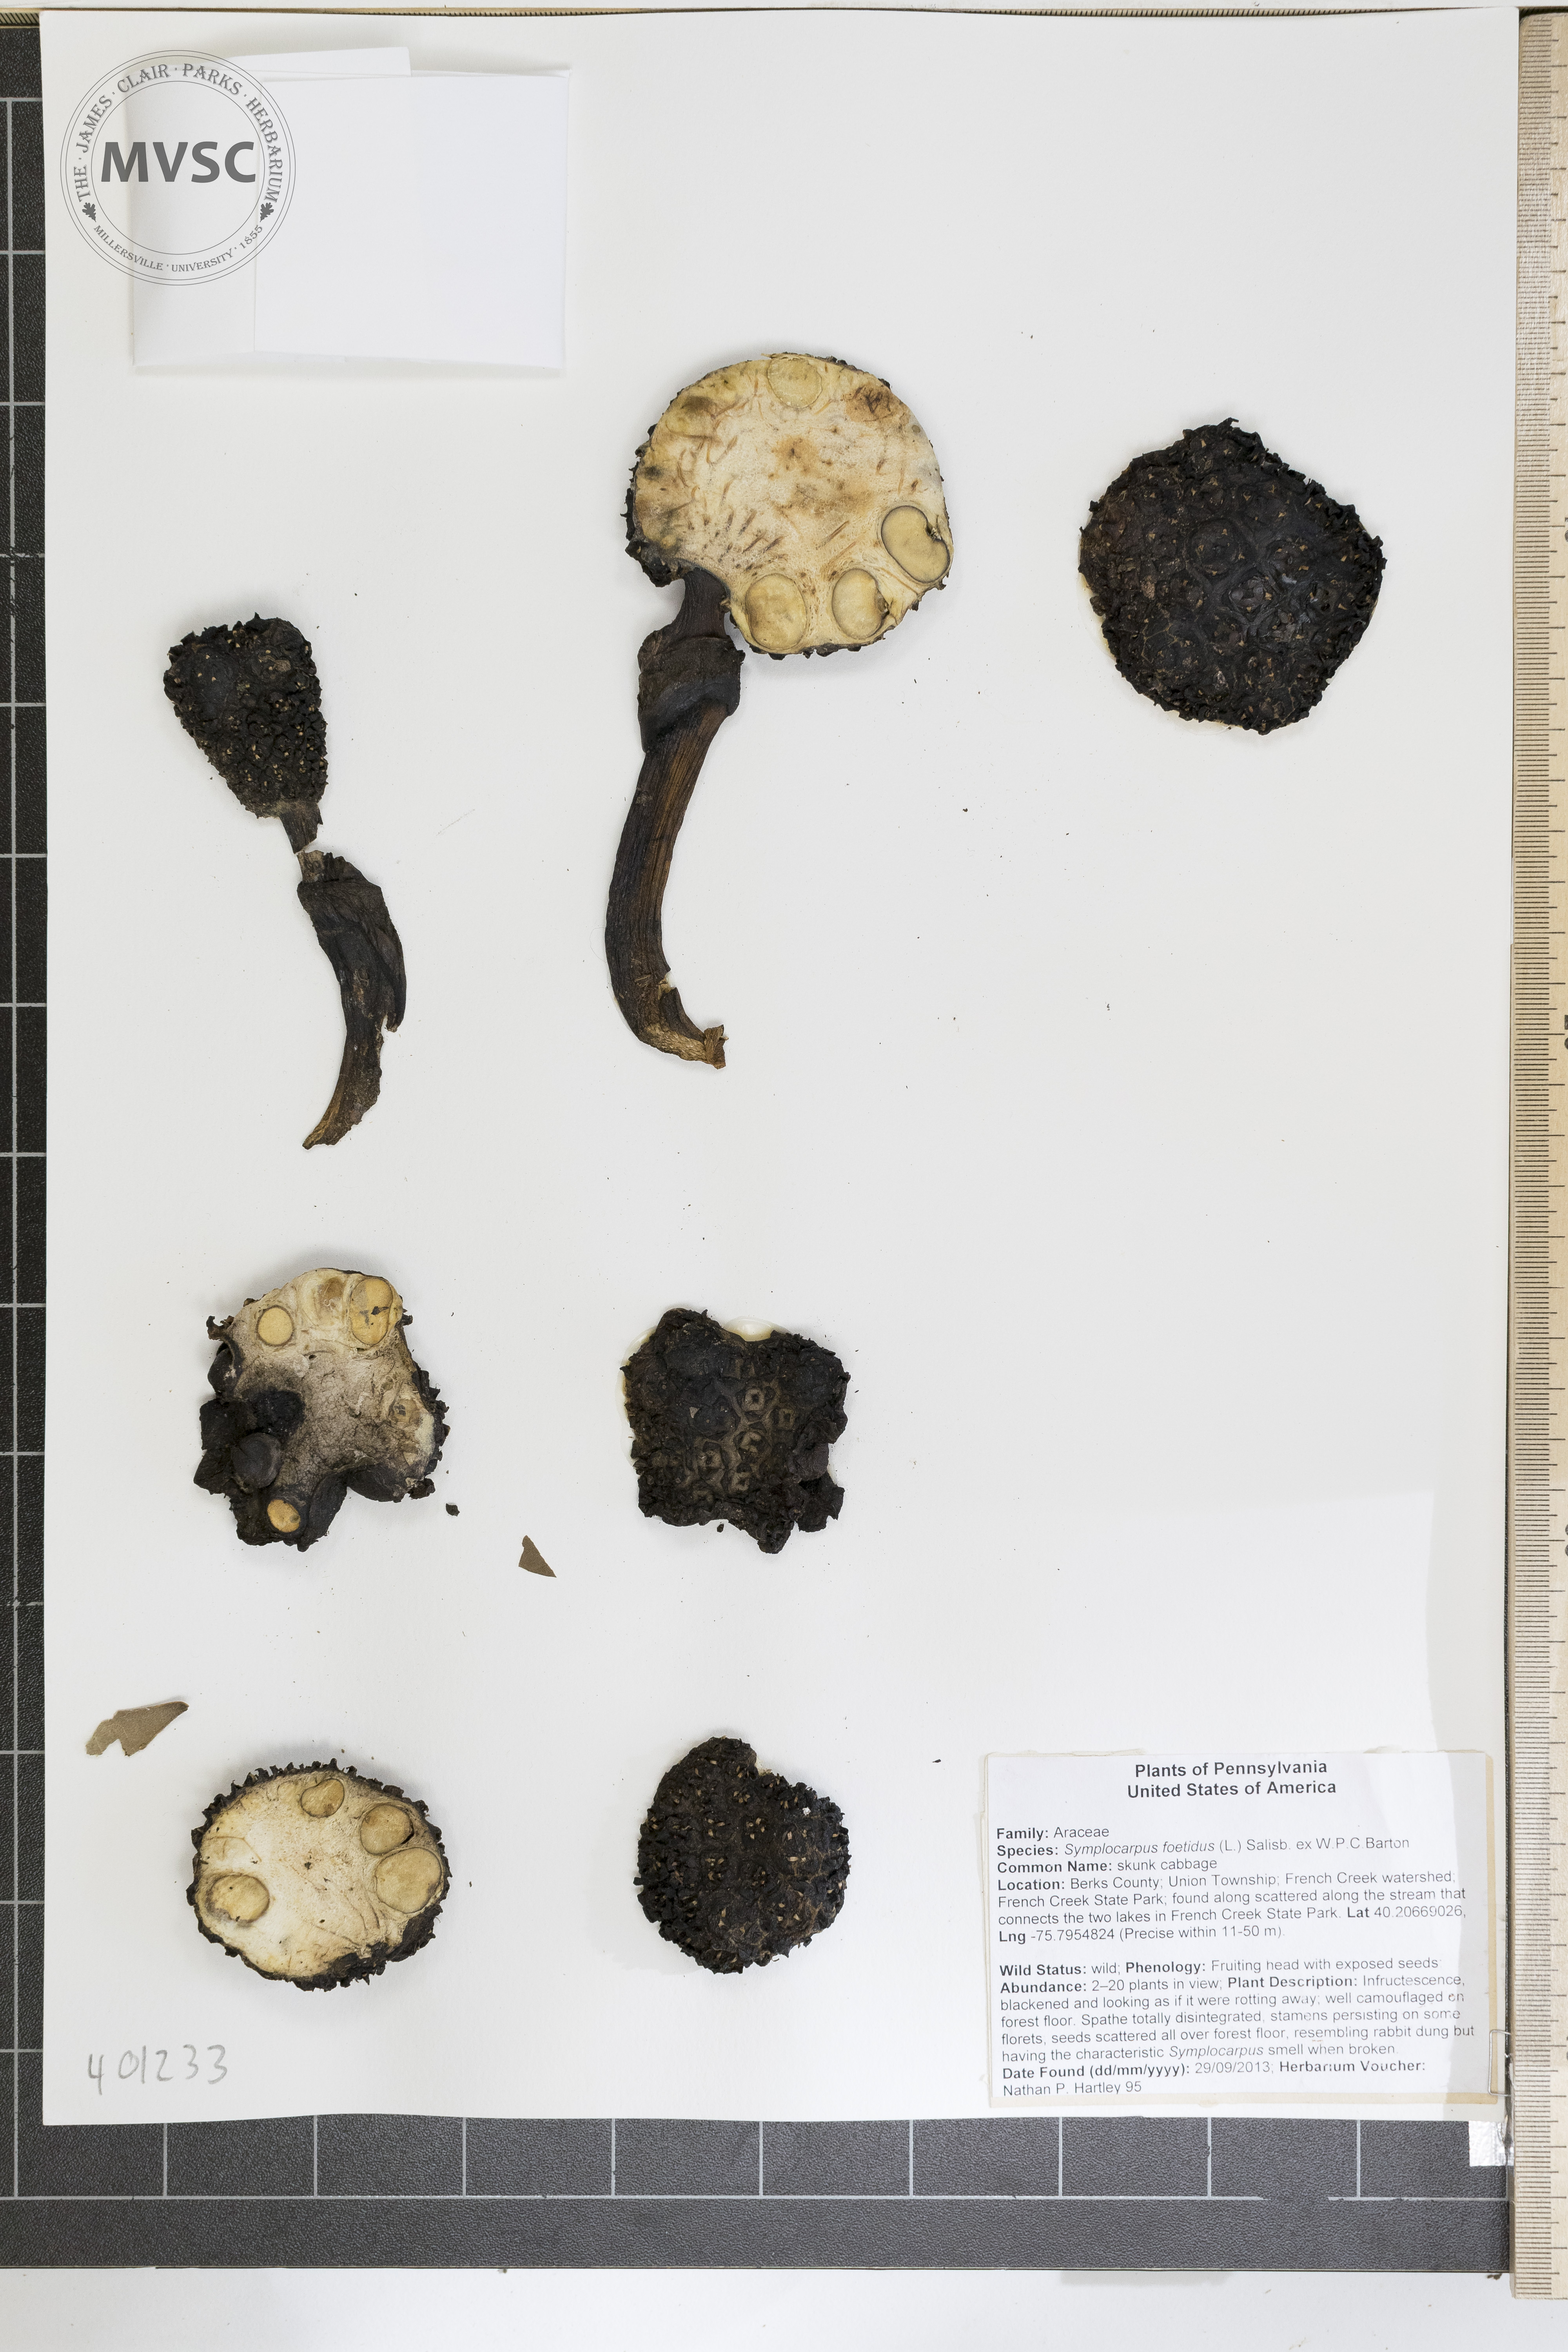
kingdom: Plantae
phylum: Tracheophyta
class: Liliopsida
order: Alismatales
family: Araceae
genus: Symplocarpus
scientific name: Symplocarpus foetidus
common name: Skunk Cabbage
